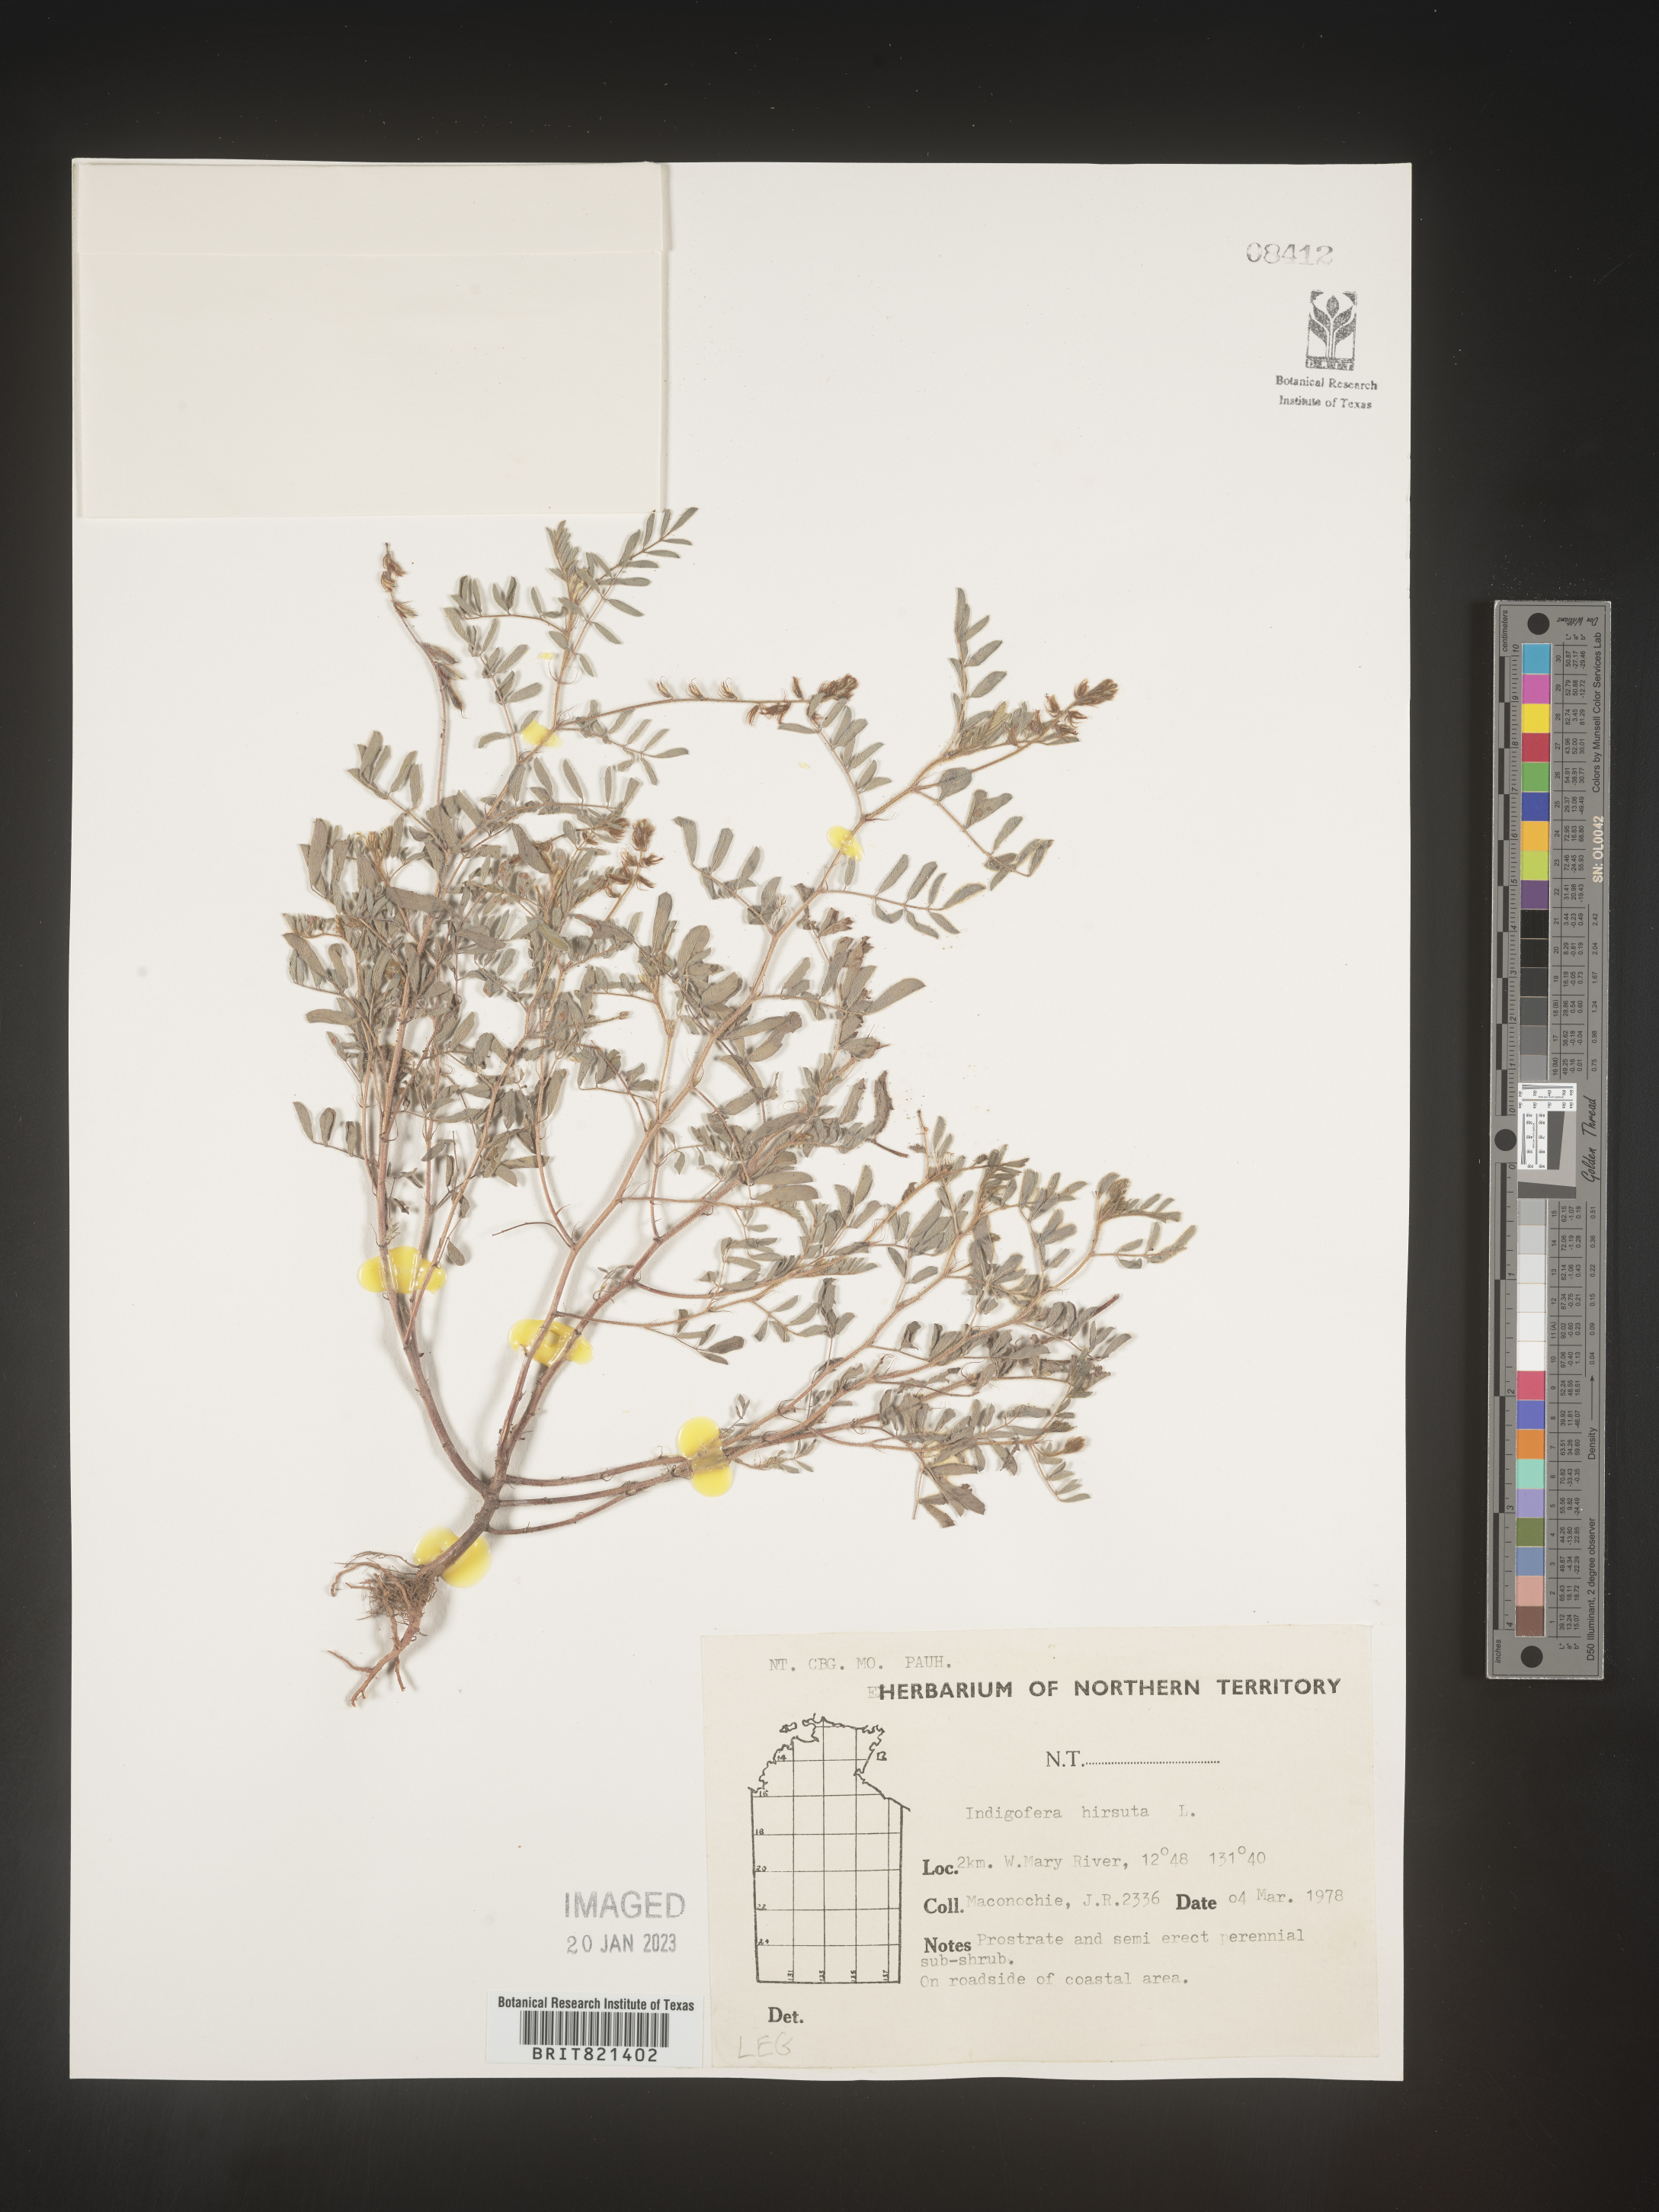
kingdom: Plantae
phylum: Tracheophyta
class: Magnoliopsida
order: Fabales
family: Fabaceae
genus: Indigofera
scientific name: Indigofera
